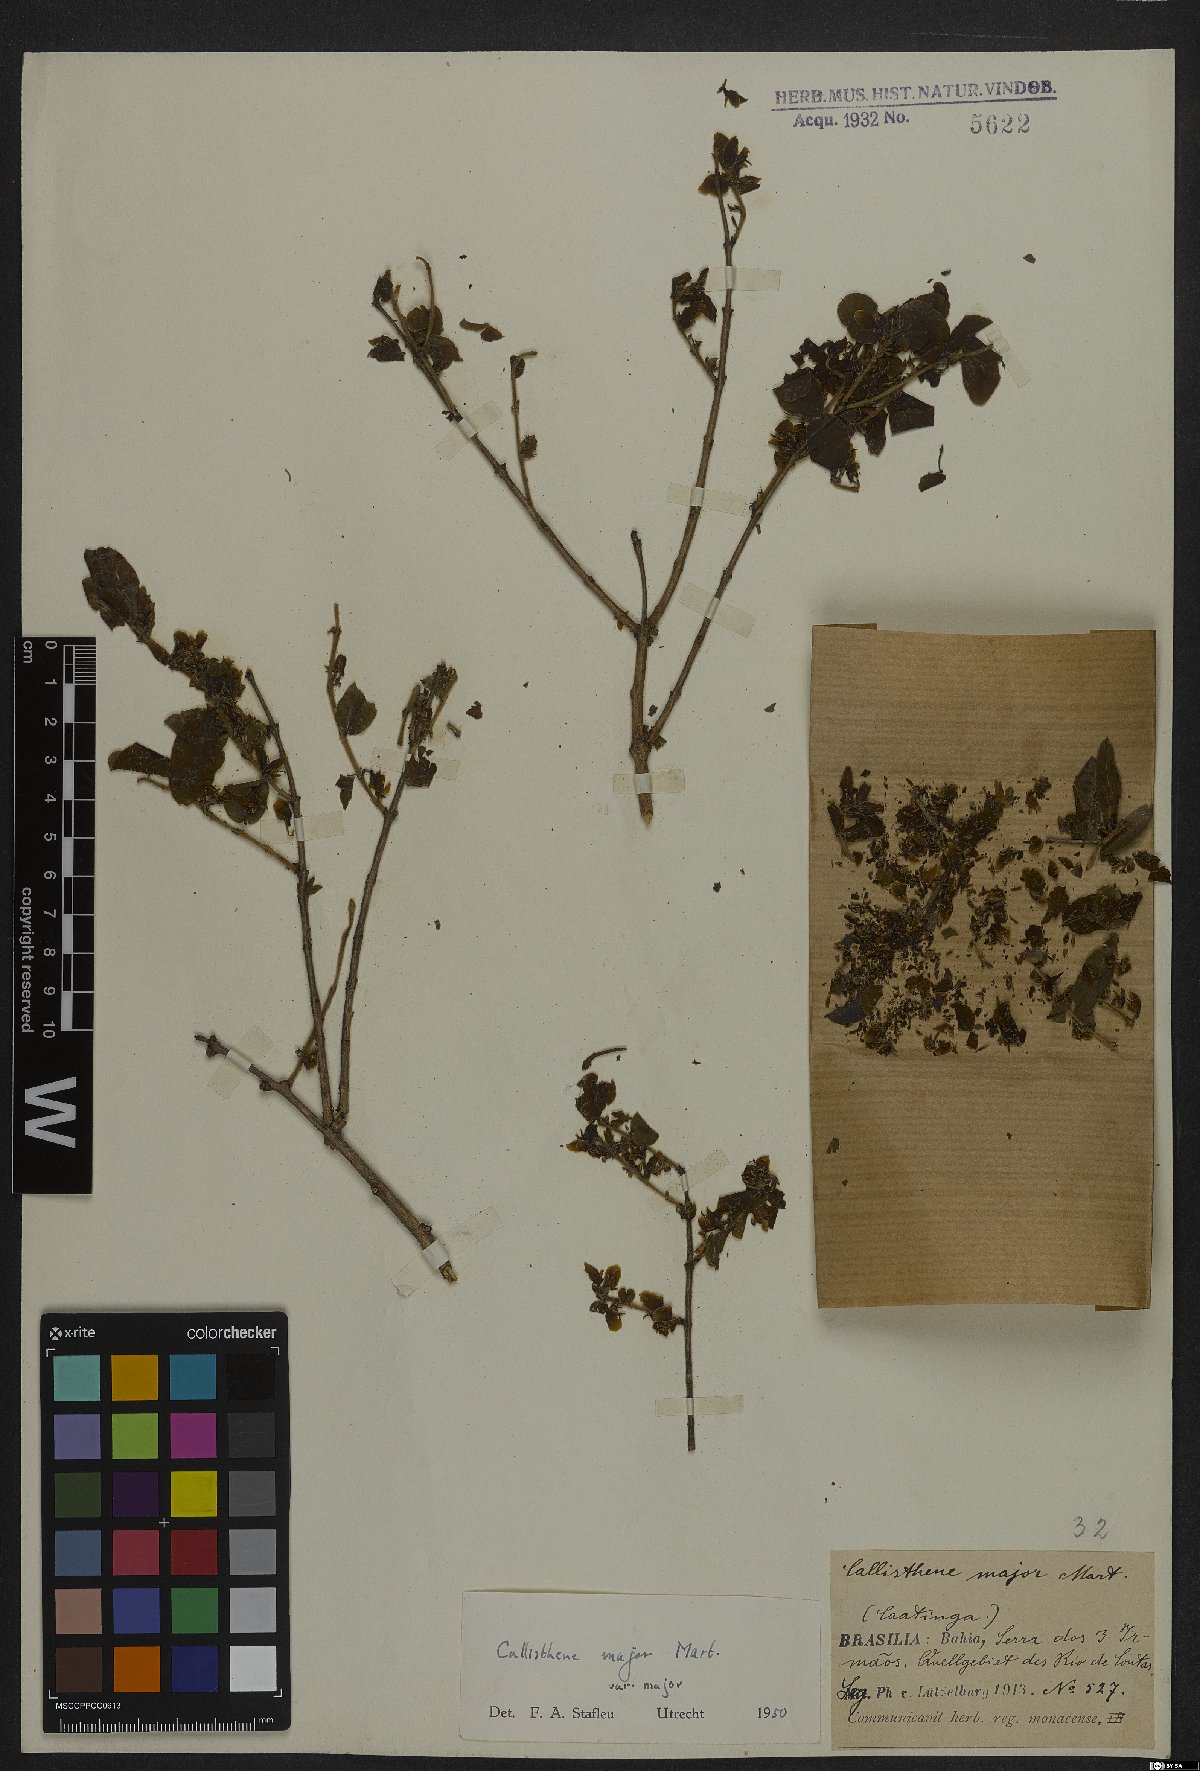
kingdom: Plantae
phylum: Tracheophyta
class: Magnoliopsida
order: Myrtales
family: Vochysiaceae
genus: Callisthene
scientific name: Callisthene major
